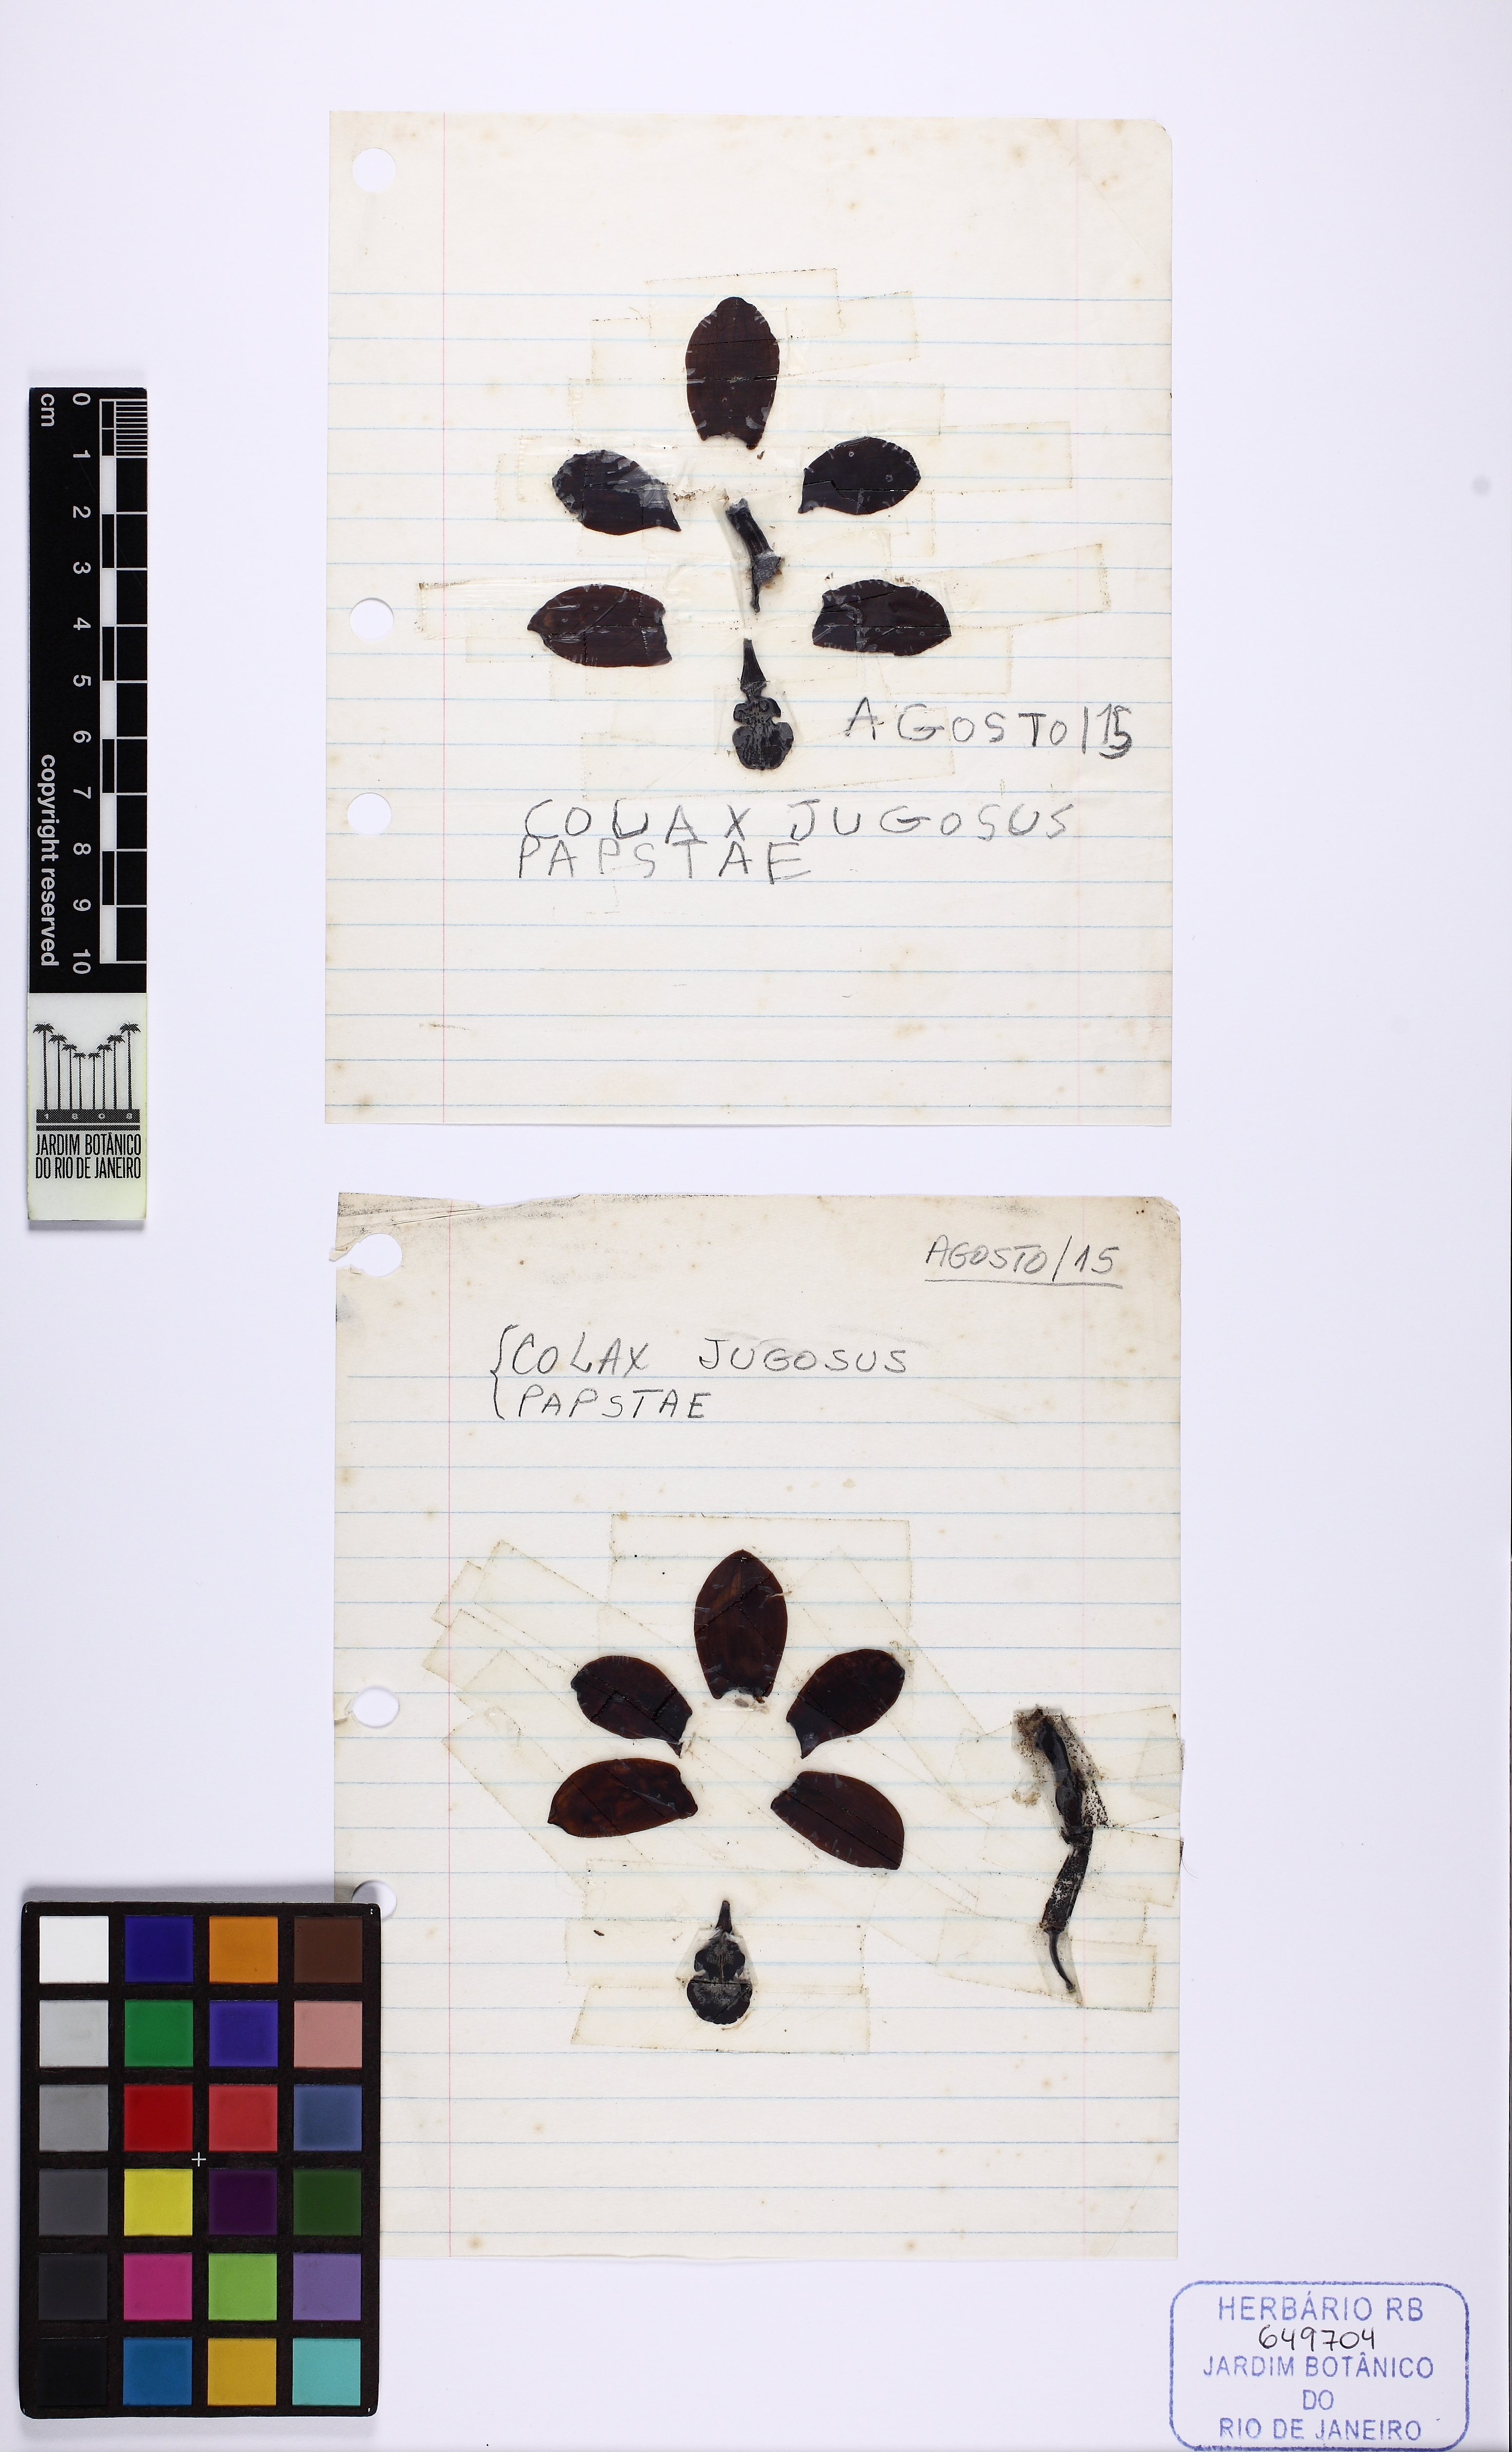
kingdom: Plantae
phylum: Tracheophyta
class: Liliopsida
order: Asparagales
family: Orchidaceae
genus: Pabstia
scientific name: Pabstia jugosa
